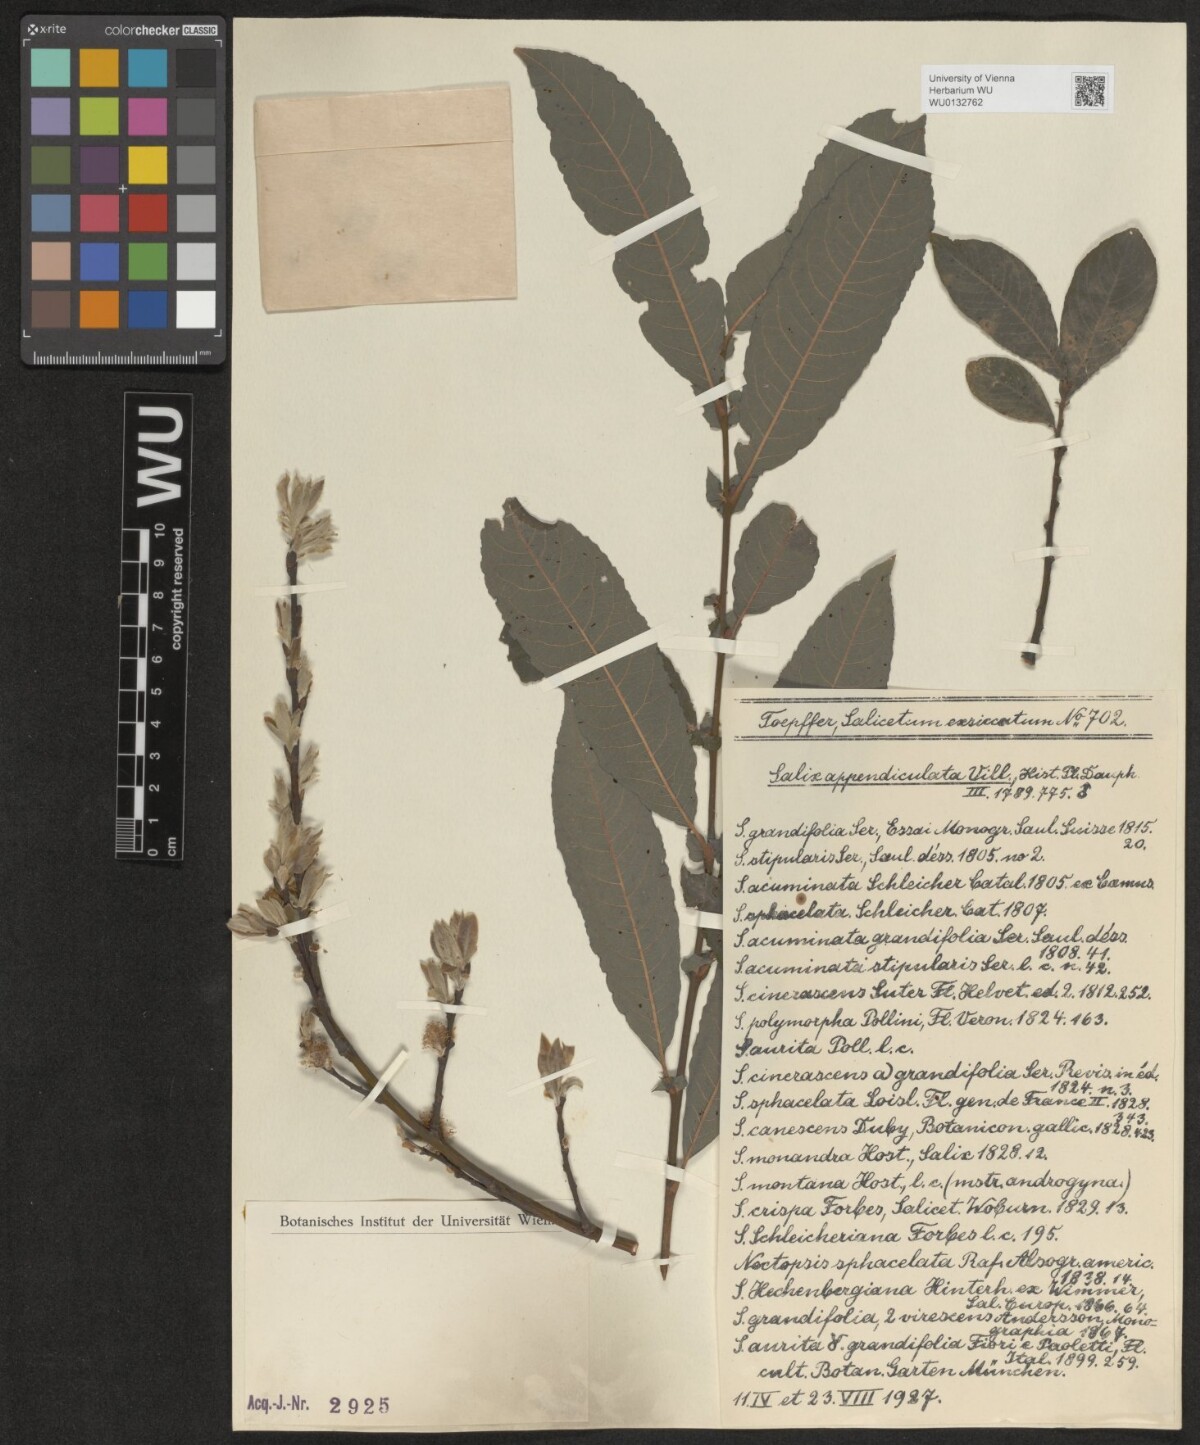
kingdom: Plantae
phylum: Tracheophyta
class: Magnoliopsida
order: Malpighiales
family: Salicaceae
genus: Salix
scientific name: Salix appendiculata
